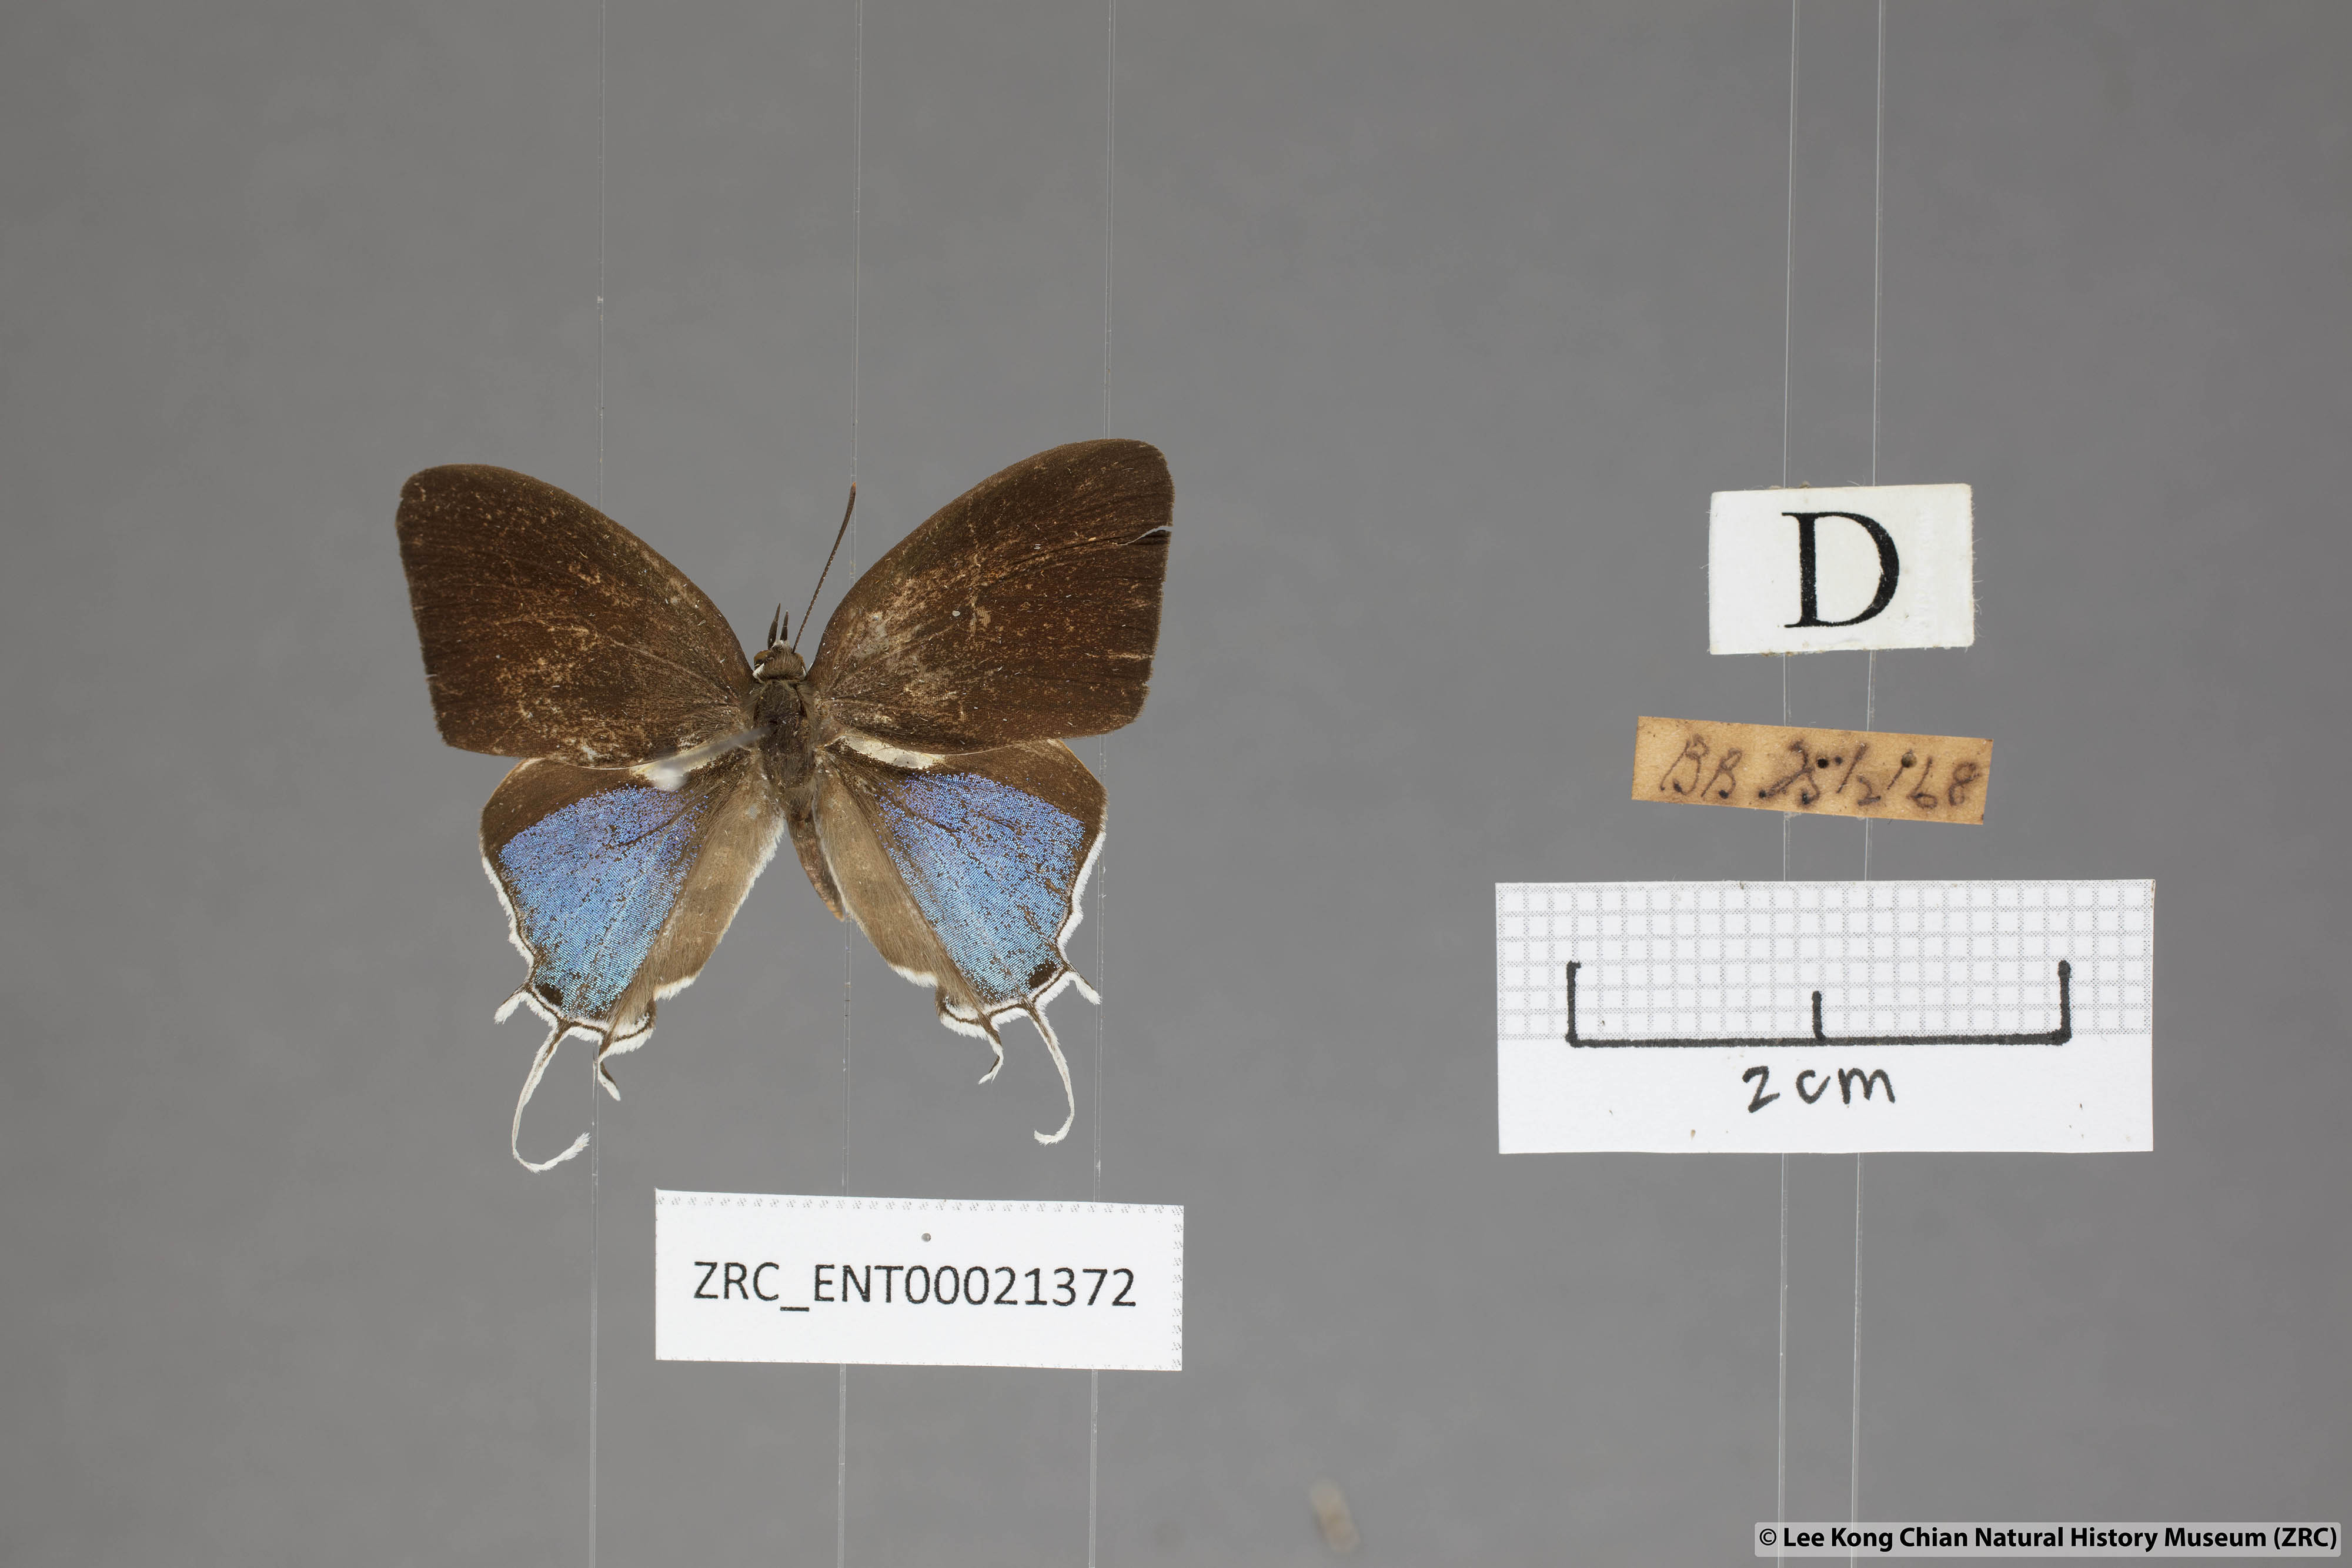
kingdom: Animalia
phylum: Arthropoda
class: Insecta
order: Lepidoptera
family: Lycaenidae
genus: Drupadia
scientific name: Drupadia ravindra
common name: Common posy
